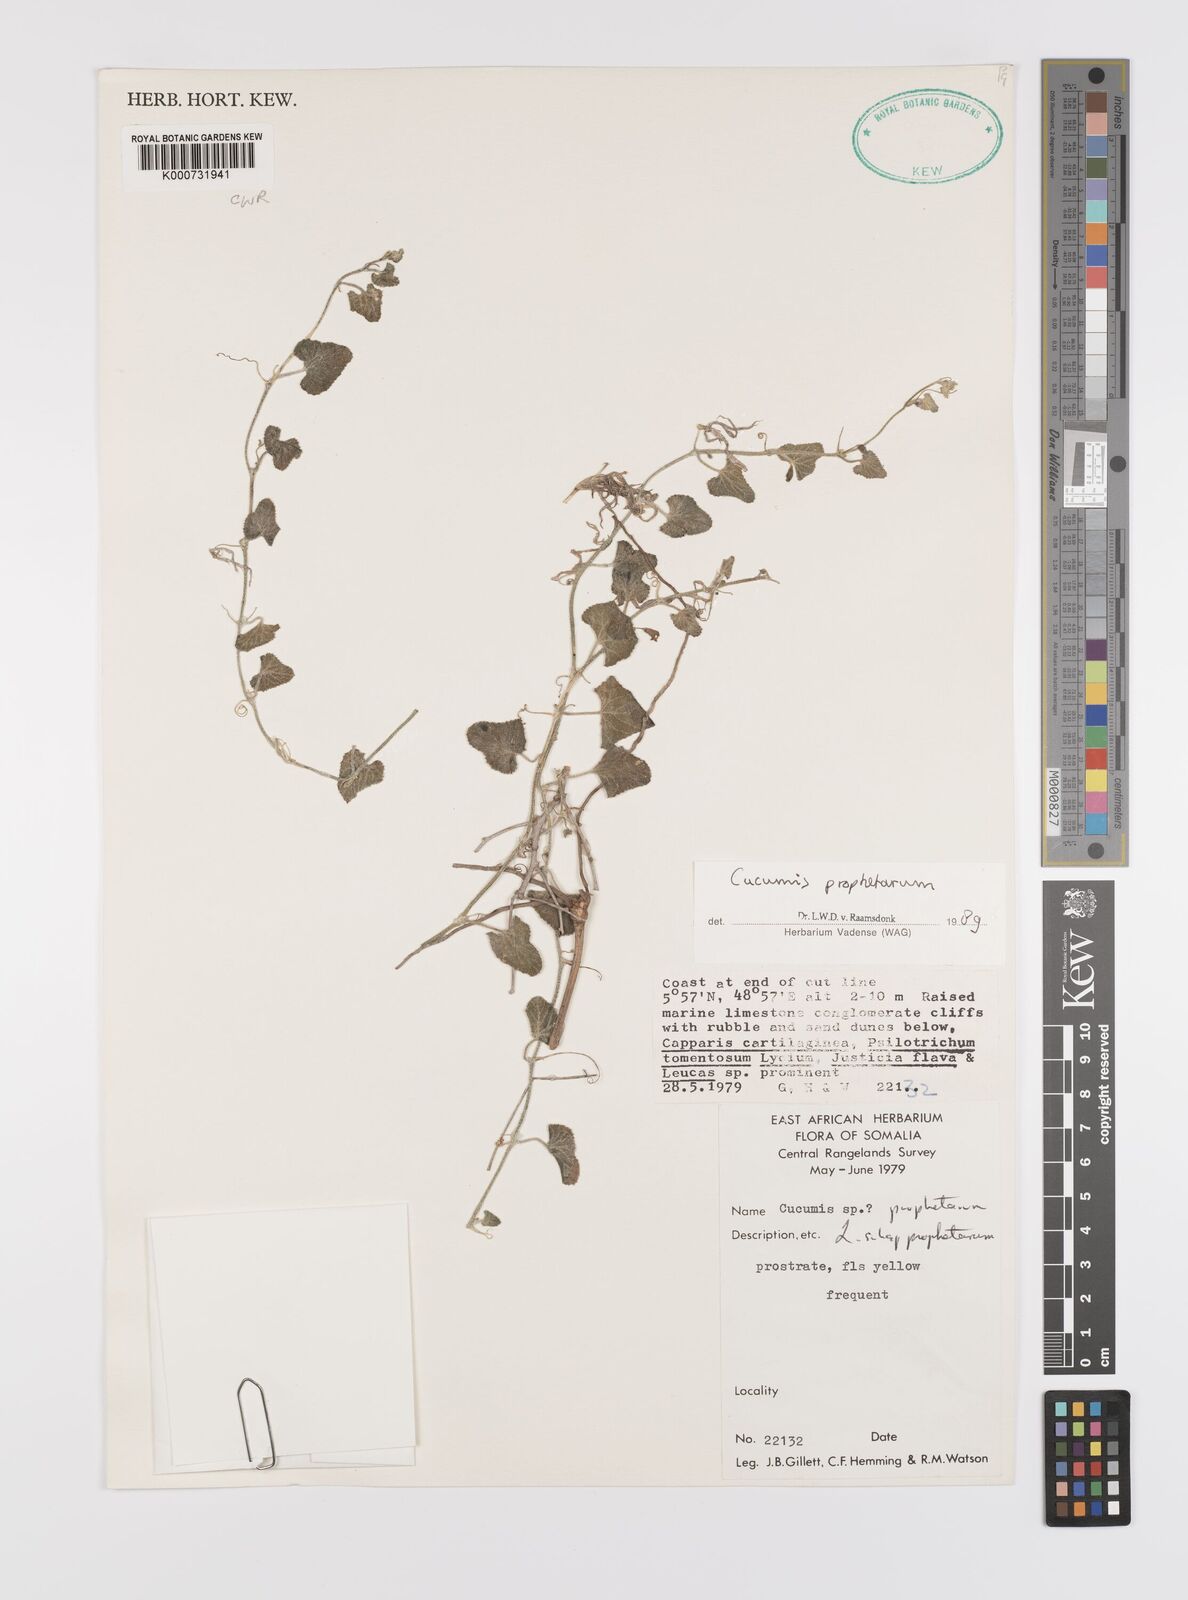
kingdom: Plantae
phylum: Tracheophyta
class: Magnoliopsida
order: Cucurbitales
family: Cucurbitaceae
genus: Cucumis
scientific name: Cucumis prophetarum
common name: Wild cucumber
